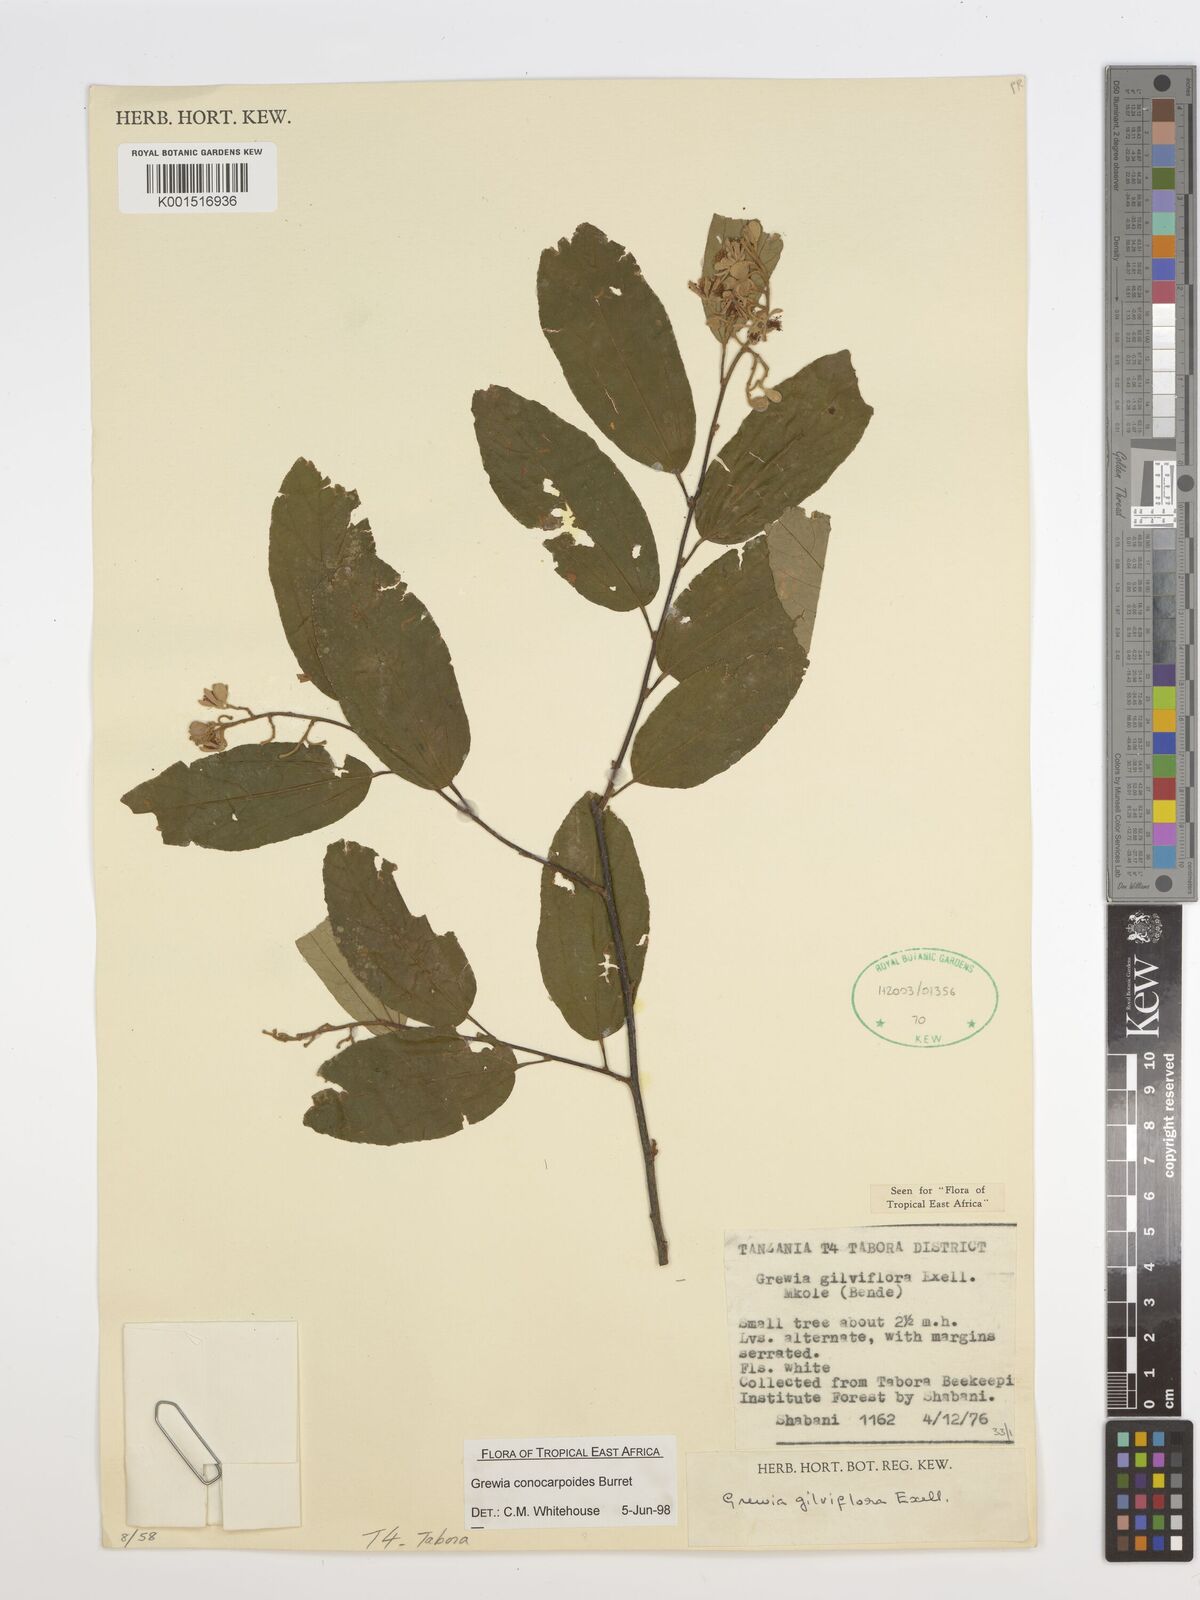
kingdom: Plantae
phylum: Tracheophyta
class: Magnoliopsida
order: Malvales
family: Malvaceae
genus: Microcos
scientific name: Microcos conocarpoides
